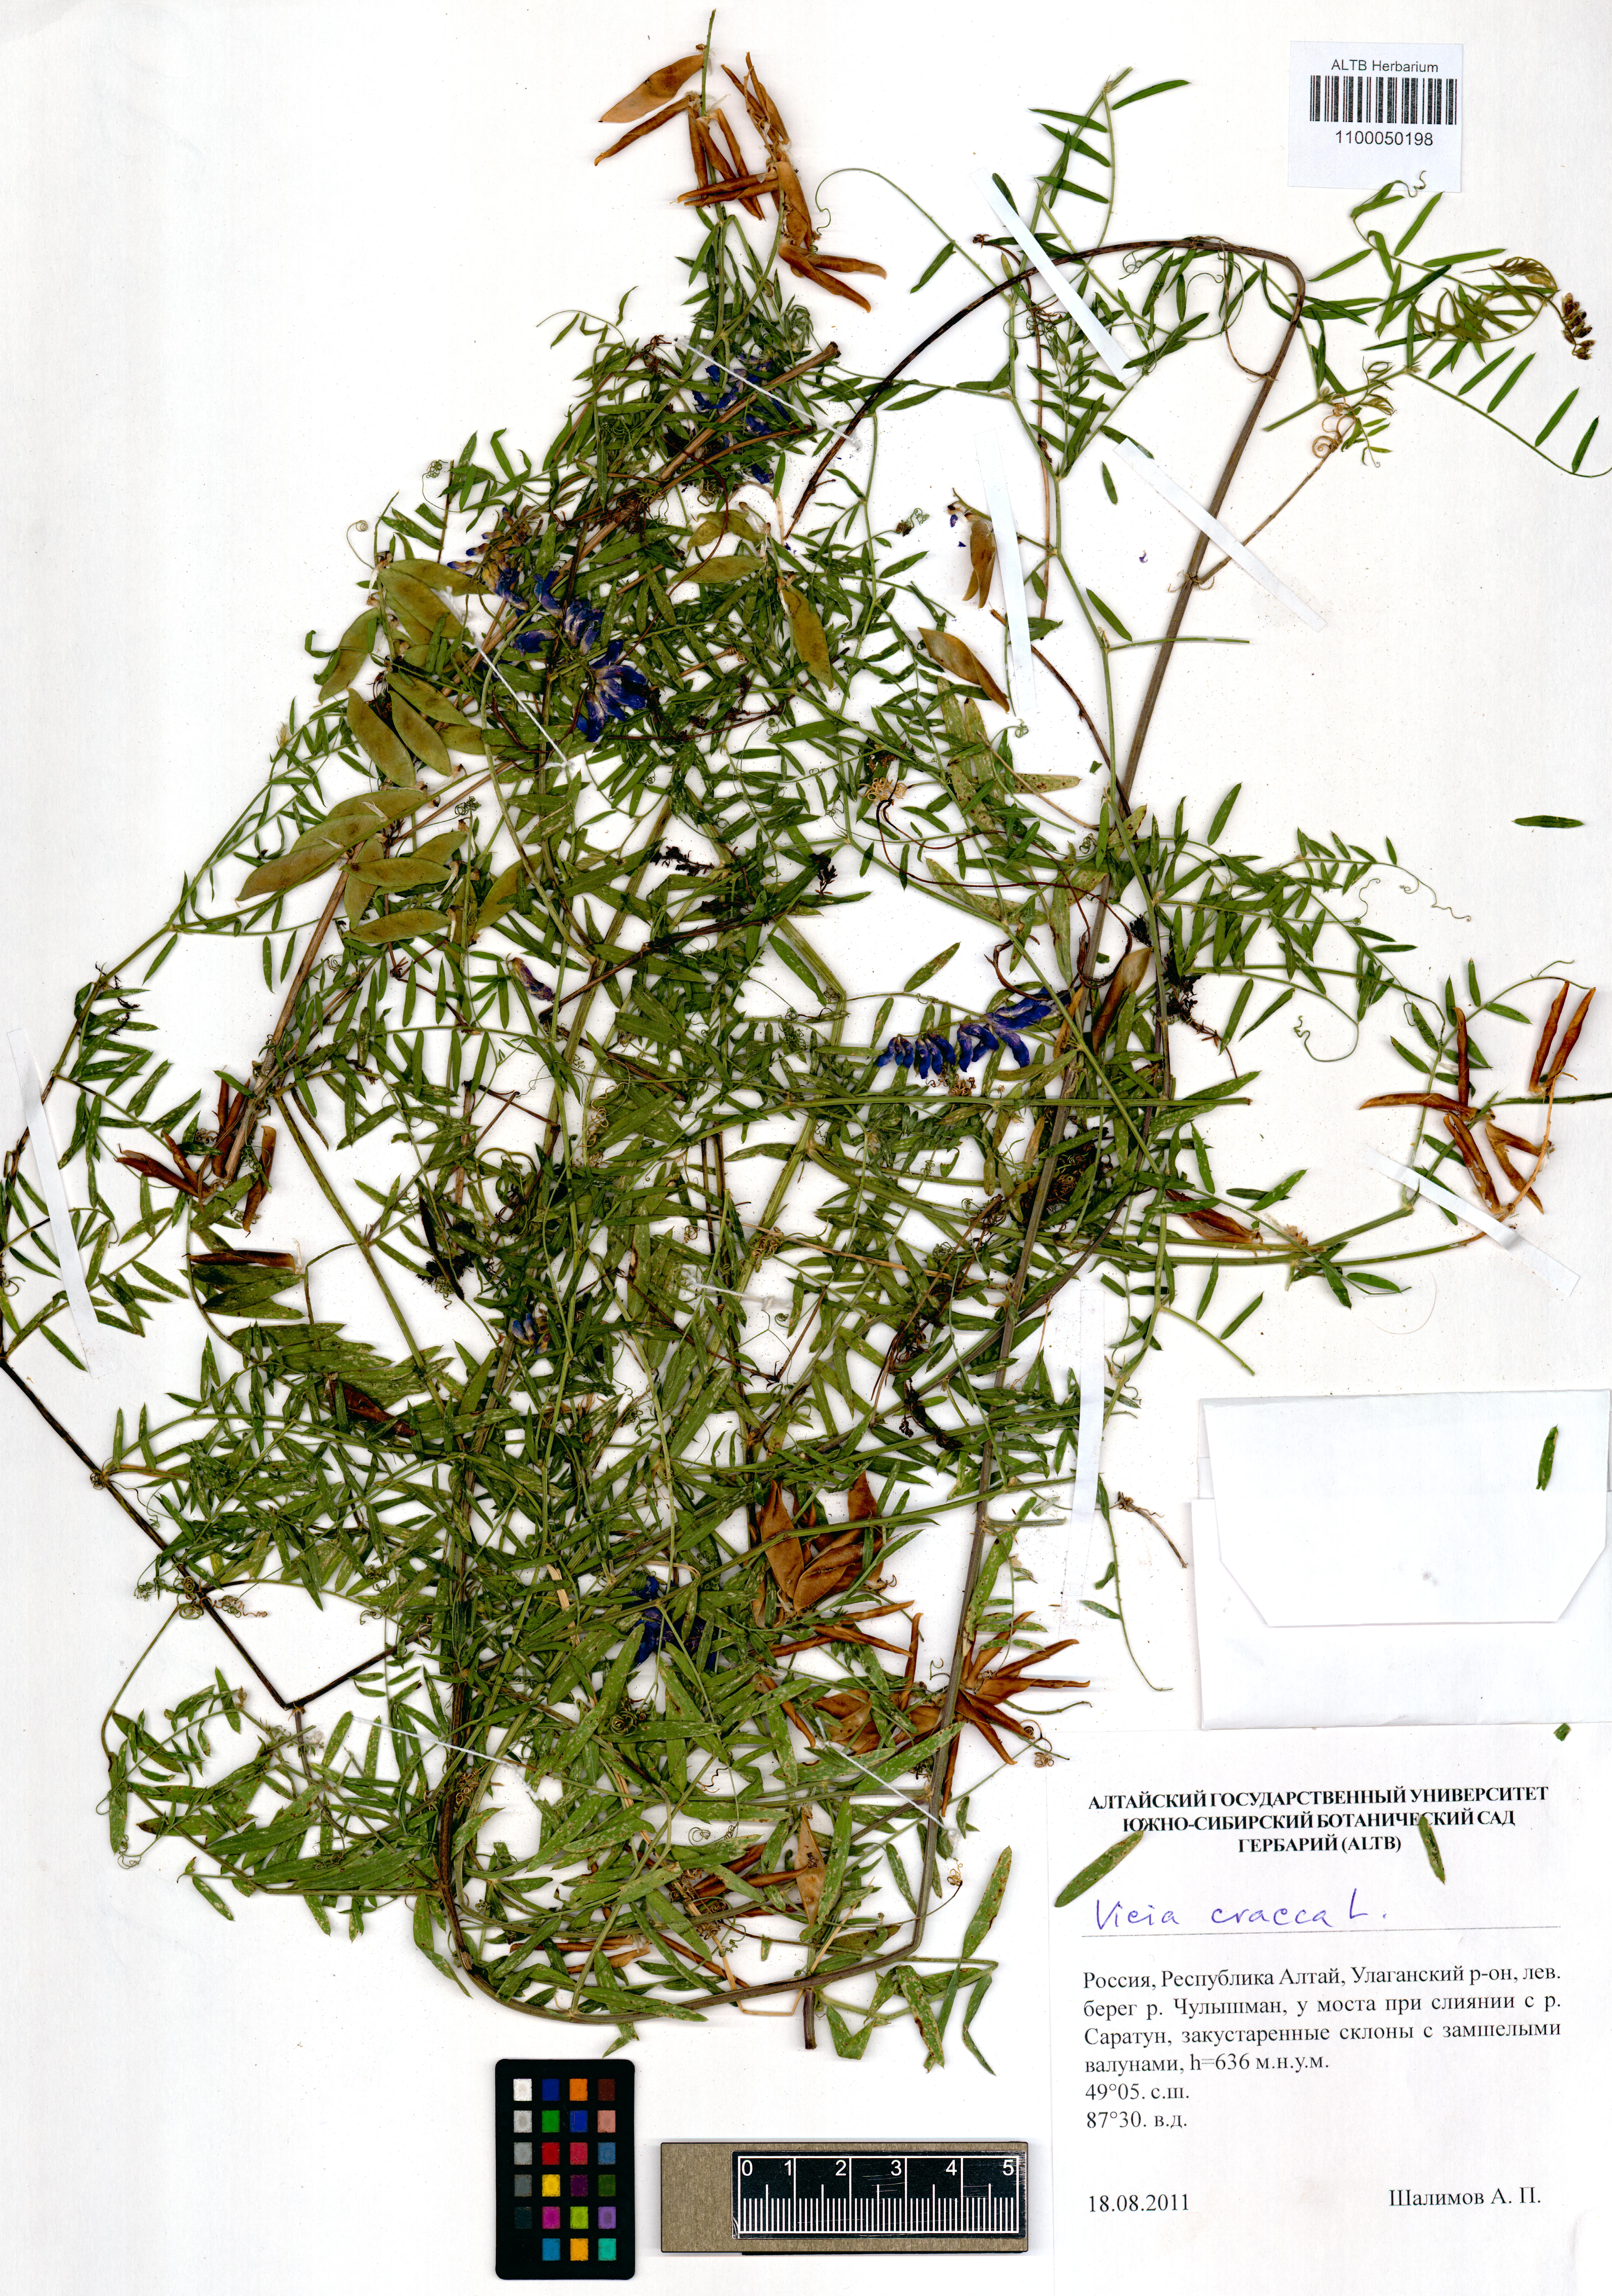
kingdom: Plantae
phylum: Tracheophyta
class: Magnoliopsida
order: Fabales
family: Fabaceae
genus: Vicia
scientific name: Vicia cracca
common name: Bird vetch
